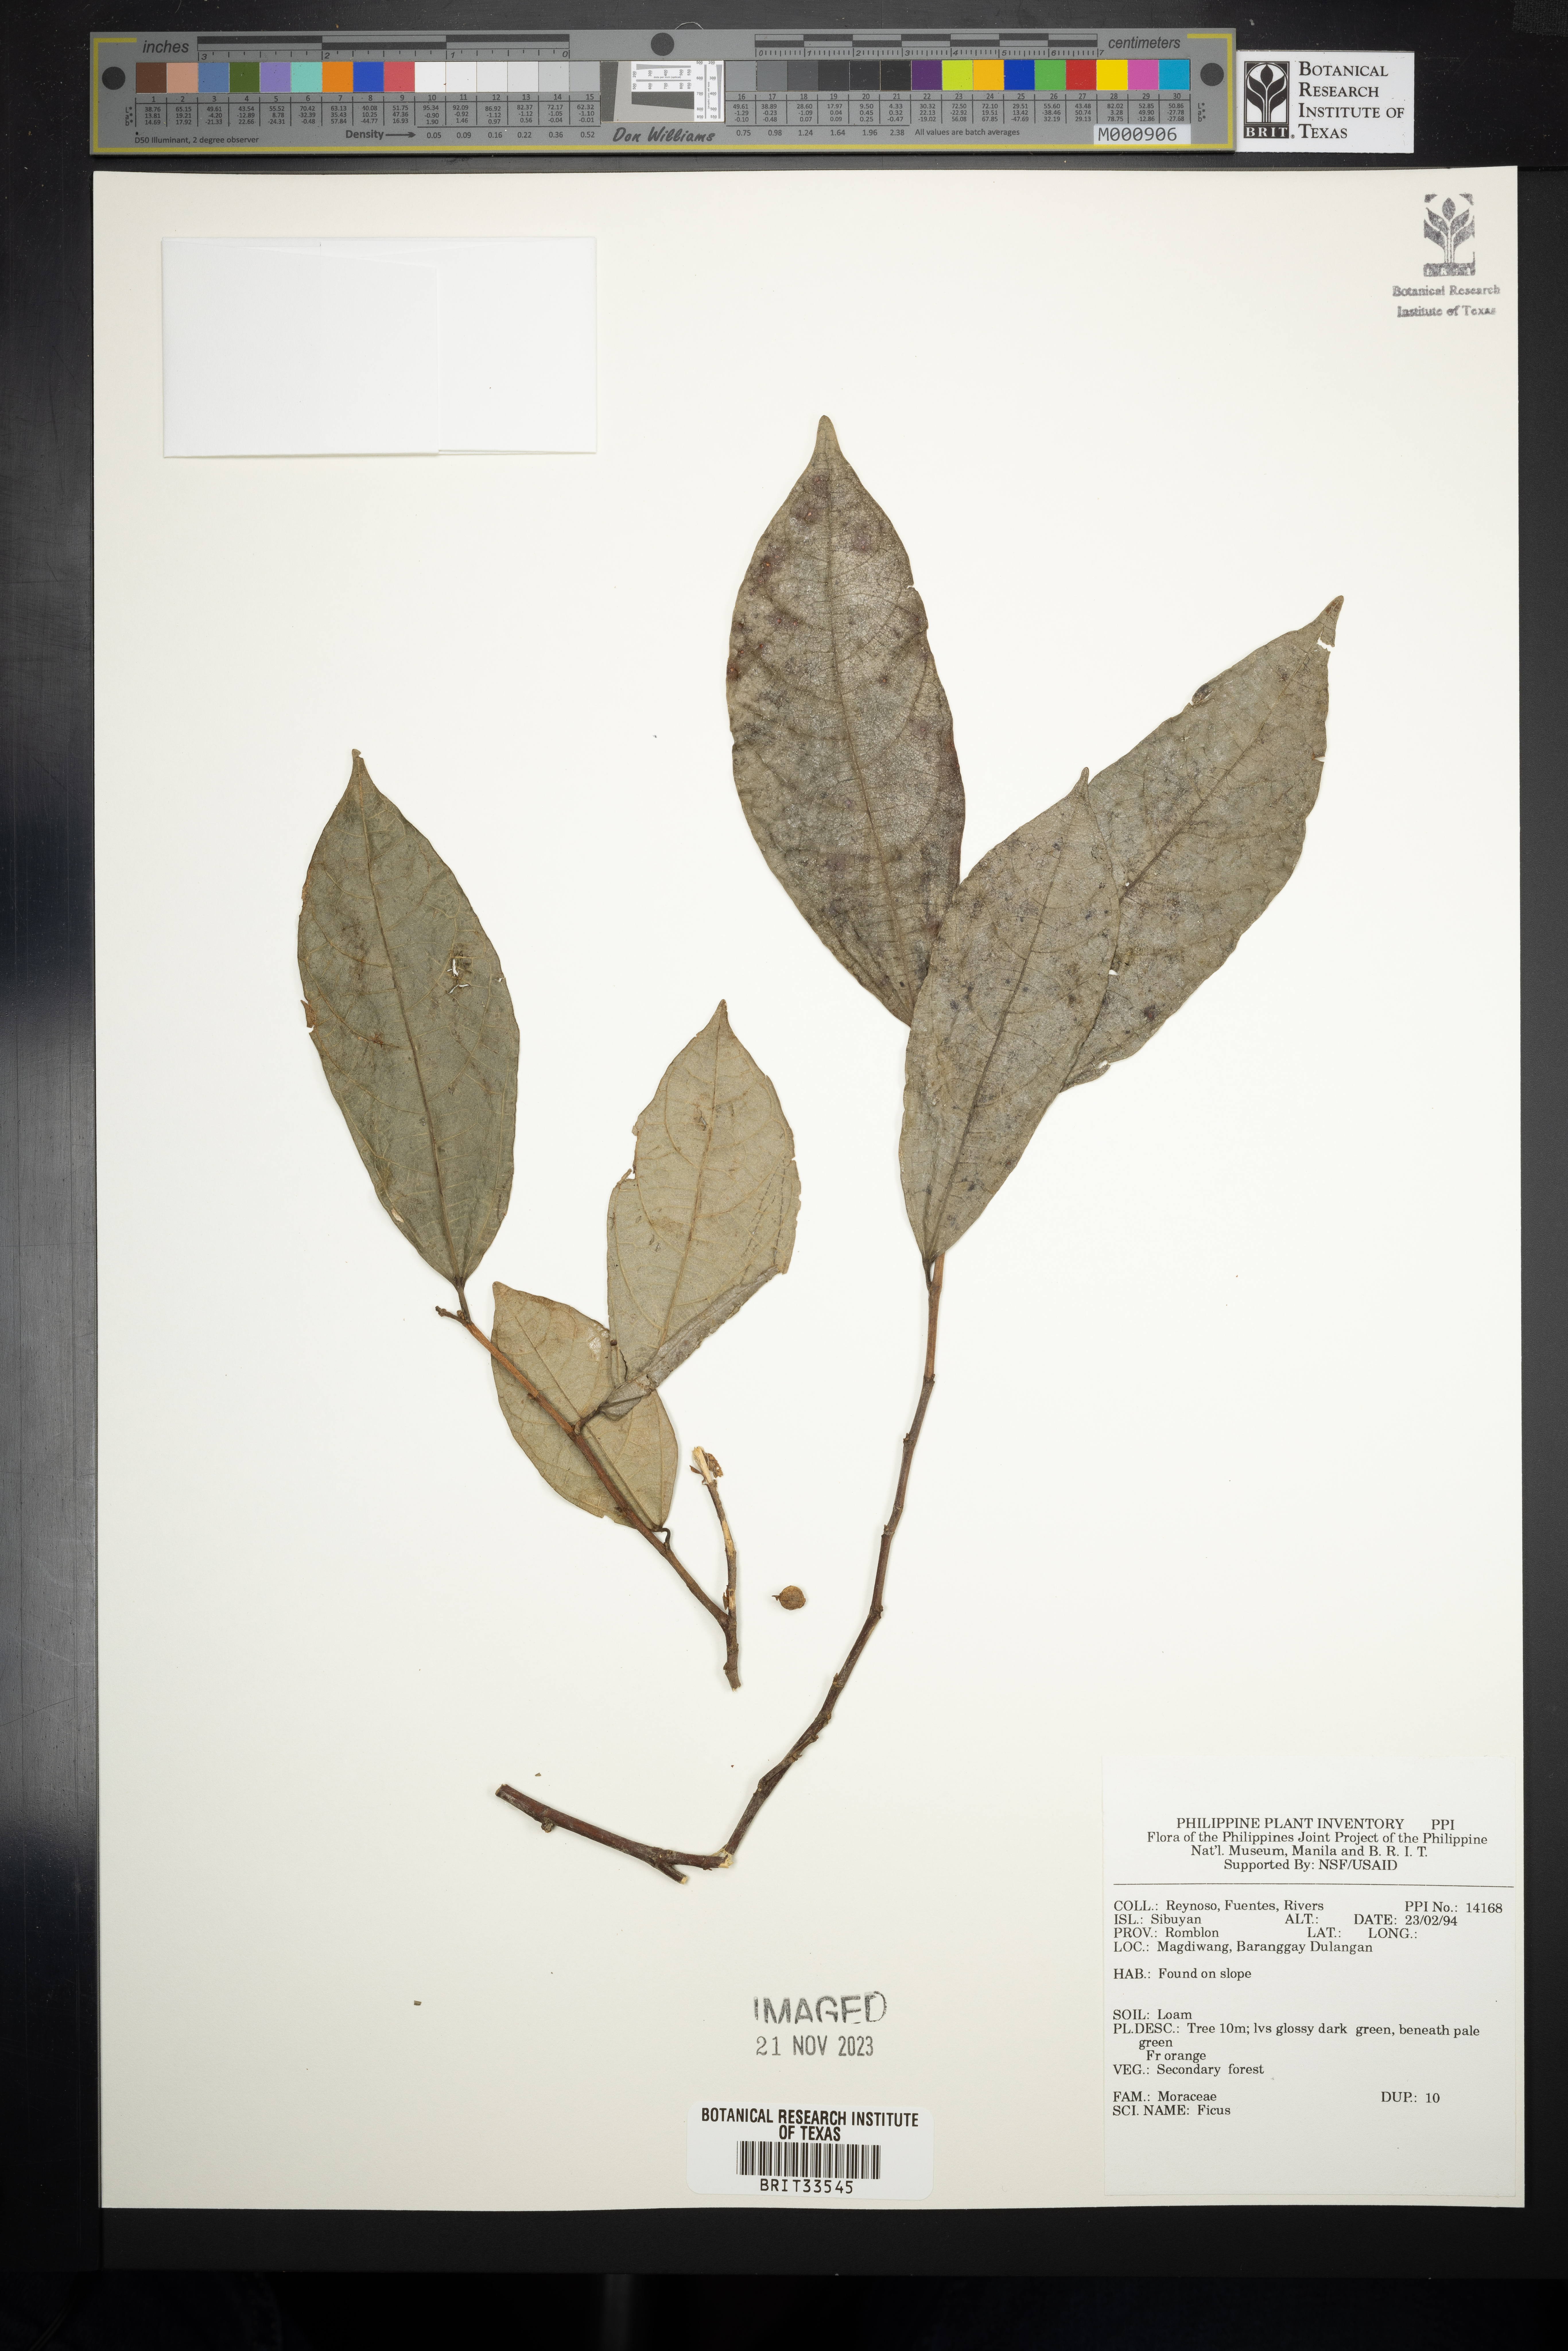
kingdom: Plantae
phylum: Tracheophyta
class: Magnoliopsida
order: Rosales
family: Moraceae
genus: Ficus
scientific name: Ficus
